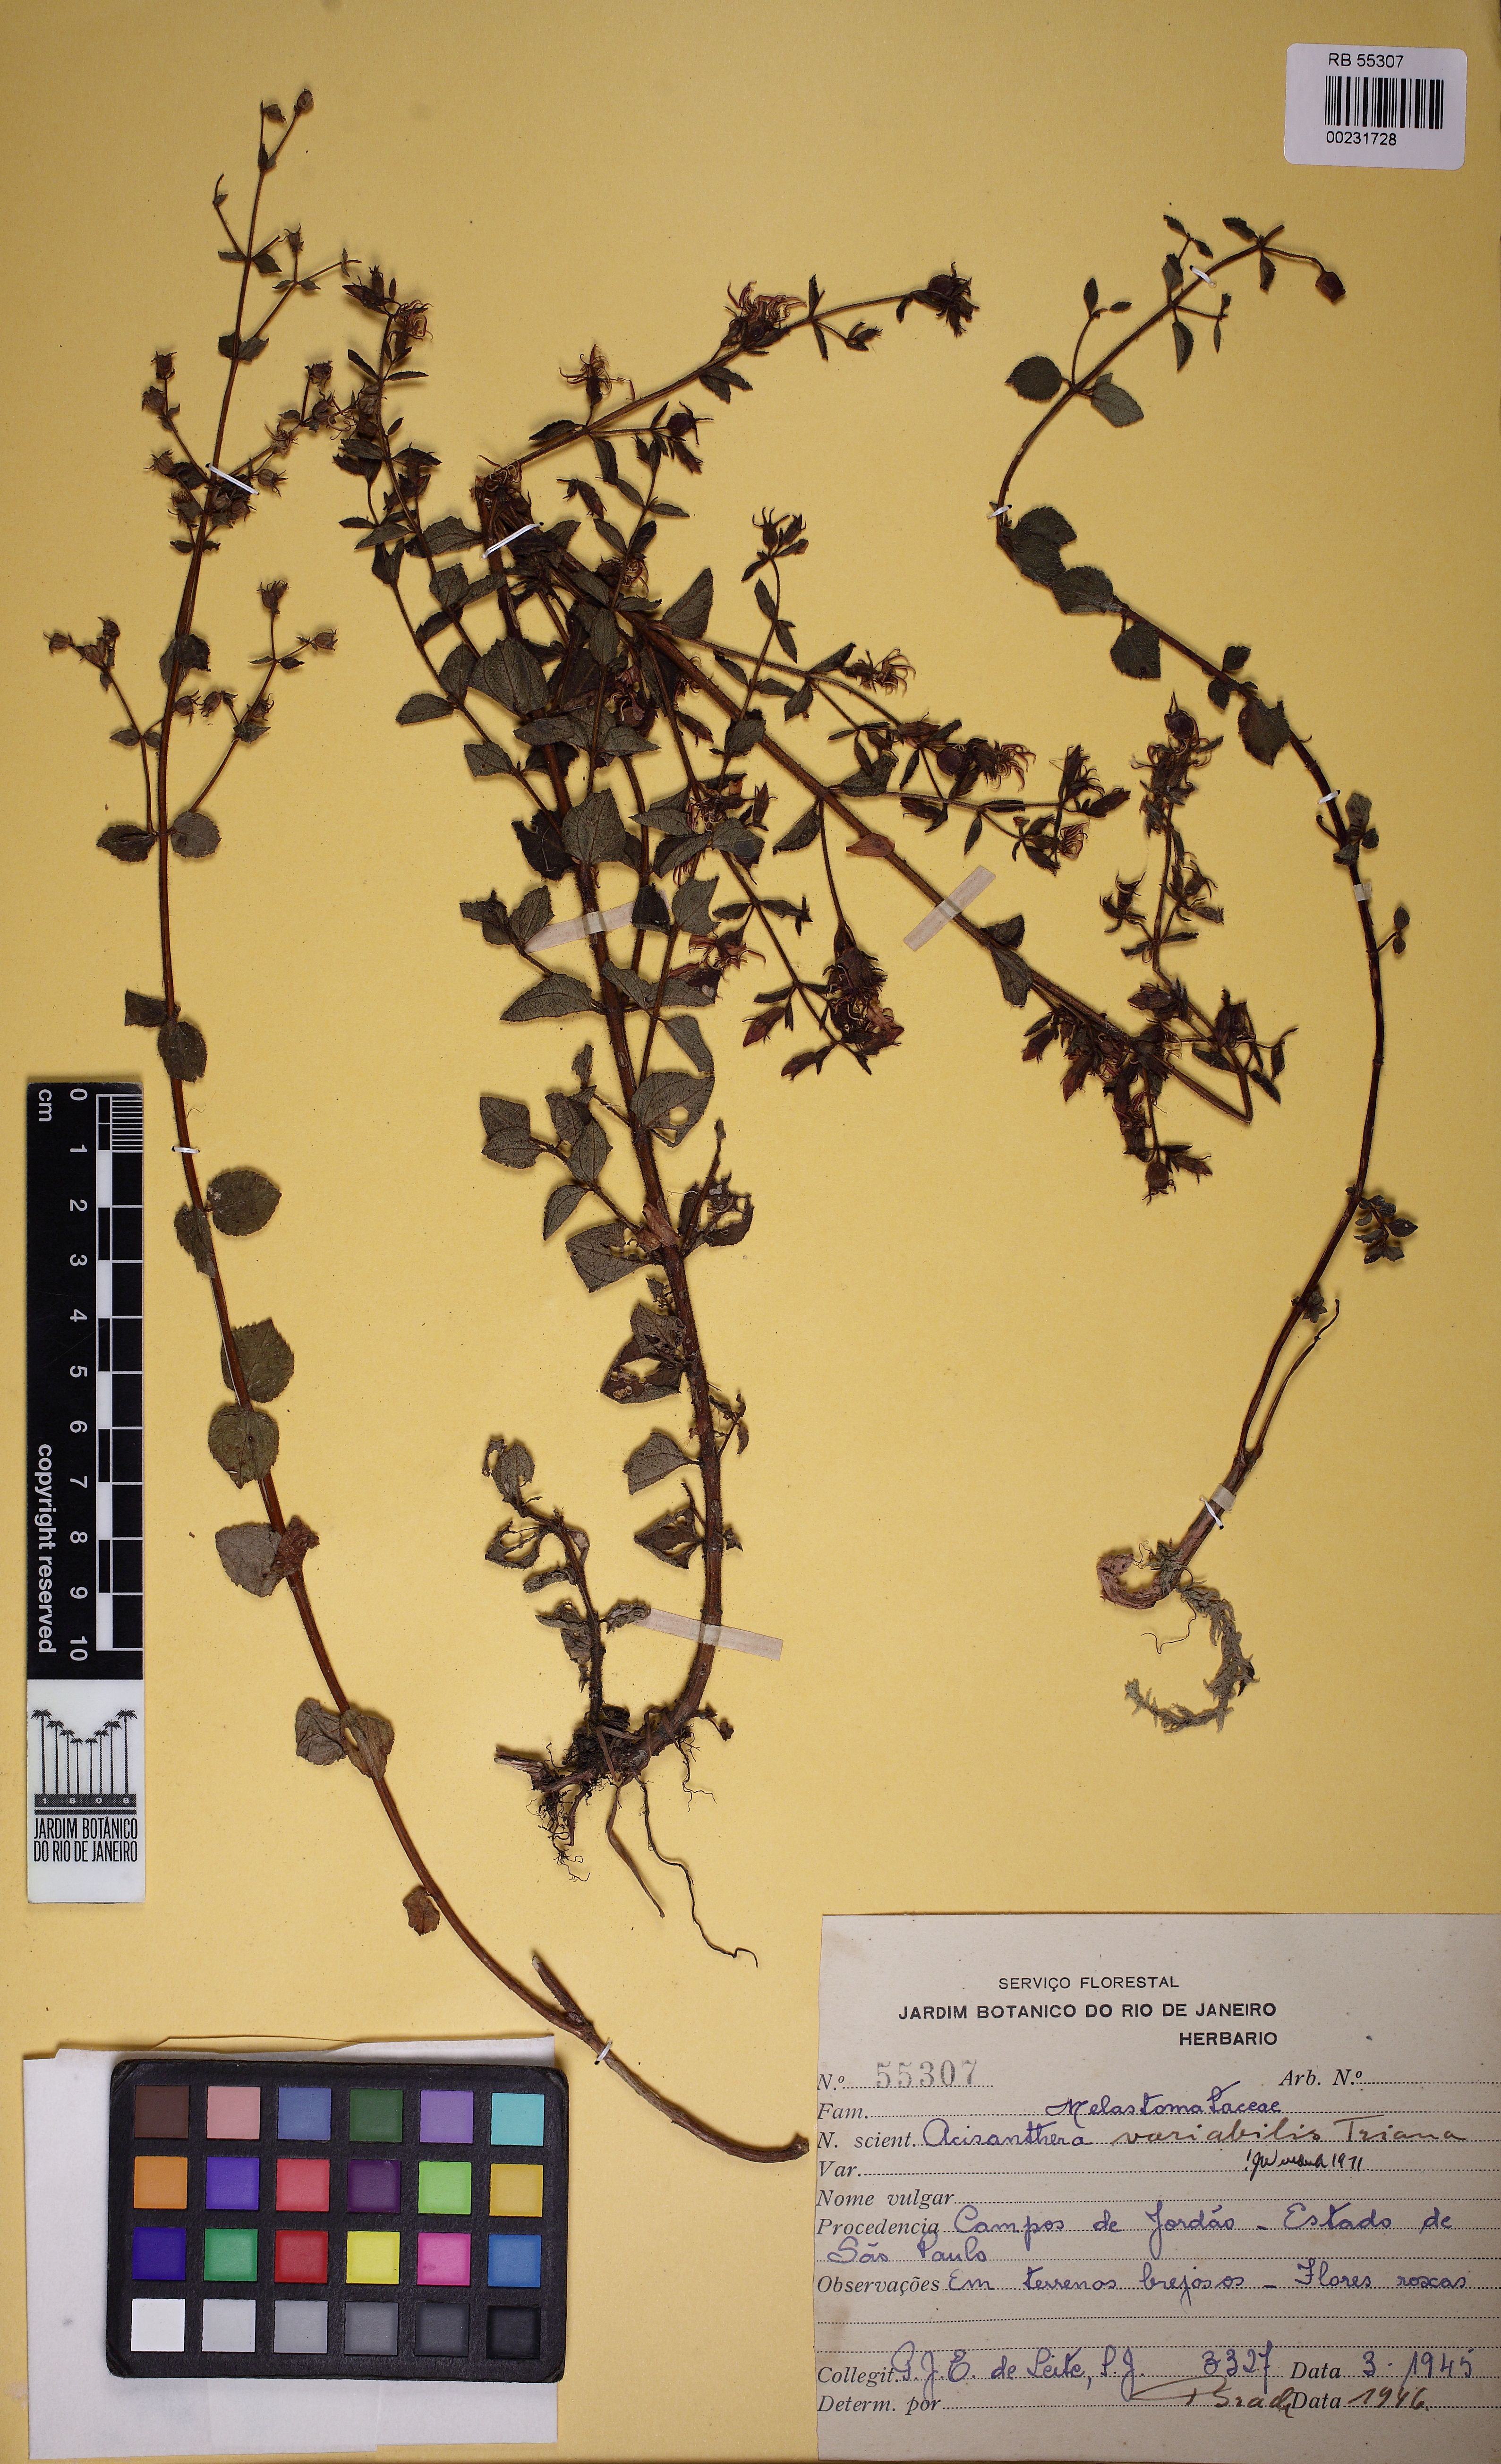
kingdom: Plantae
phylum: Tracheophyta
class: Magnoliopsida
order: Myrtales
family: Melastomataceae
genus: Acisanthera
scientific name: Acisanthera variabilis
